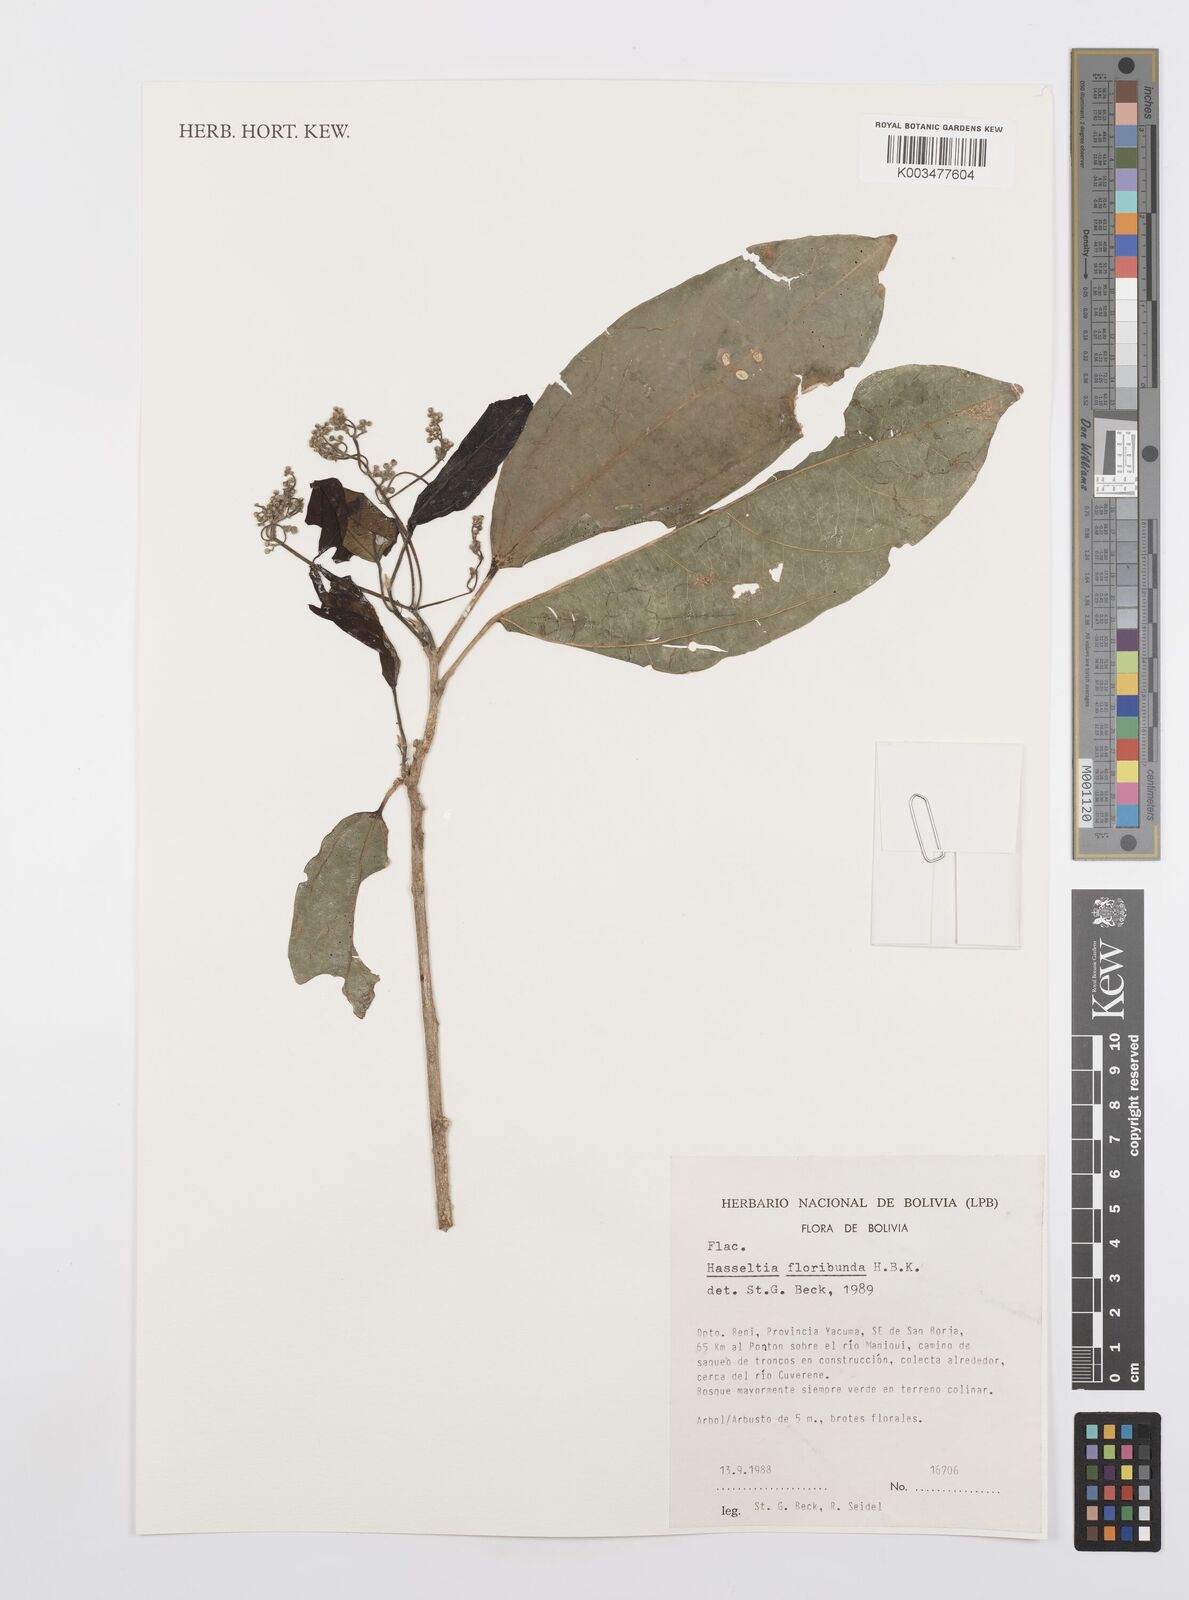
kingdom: Plantae
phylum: Tracheophyta
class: Magnoliopsida
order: Malpighiales
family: Salicaceae
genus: Hasseltia
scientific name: Hasseltia floribunda
